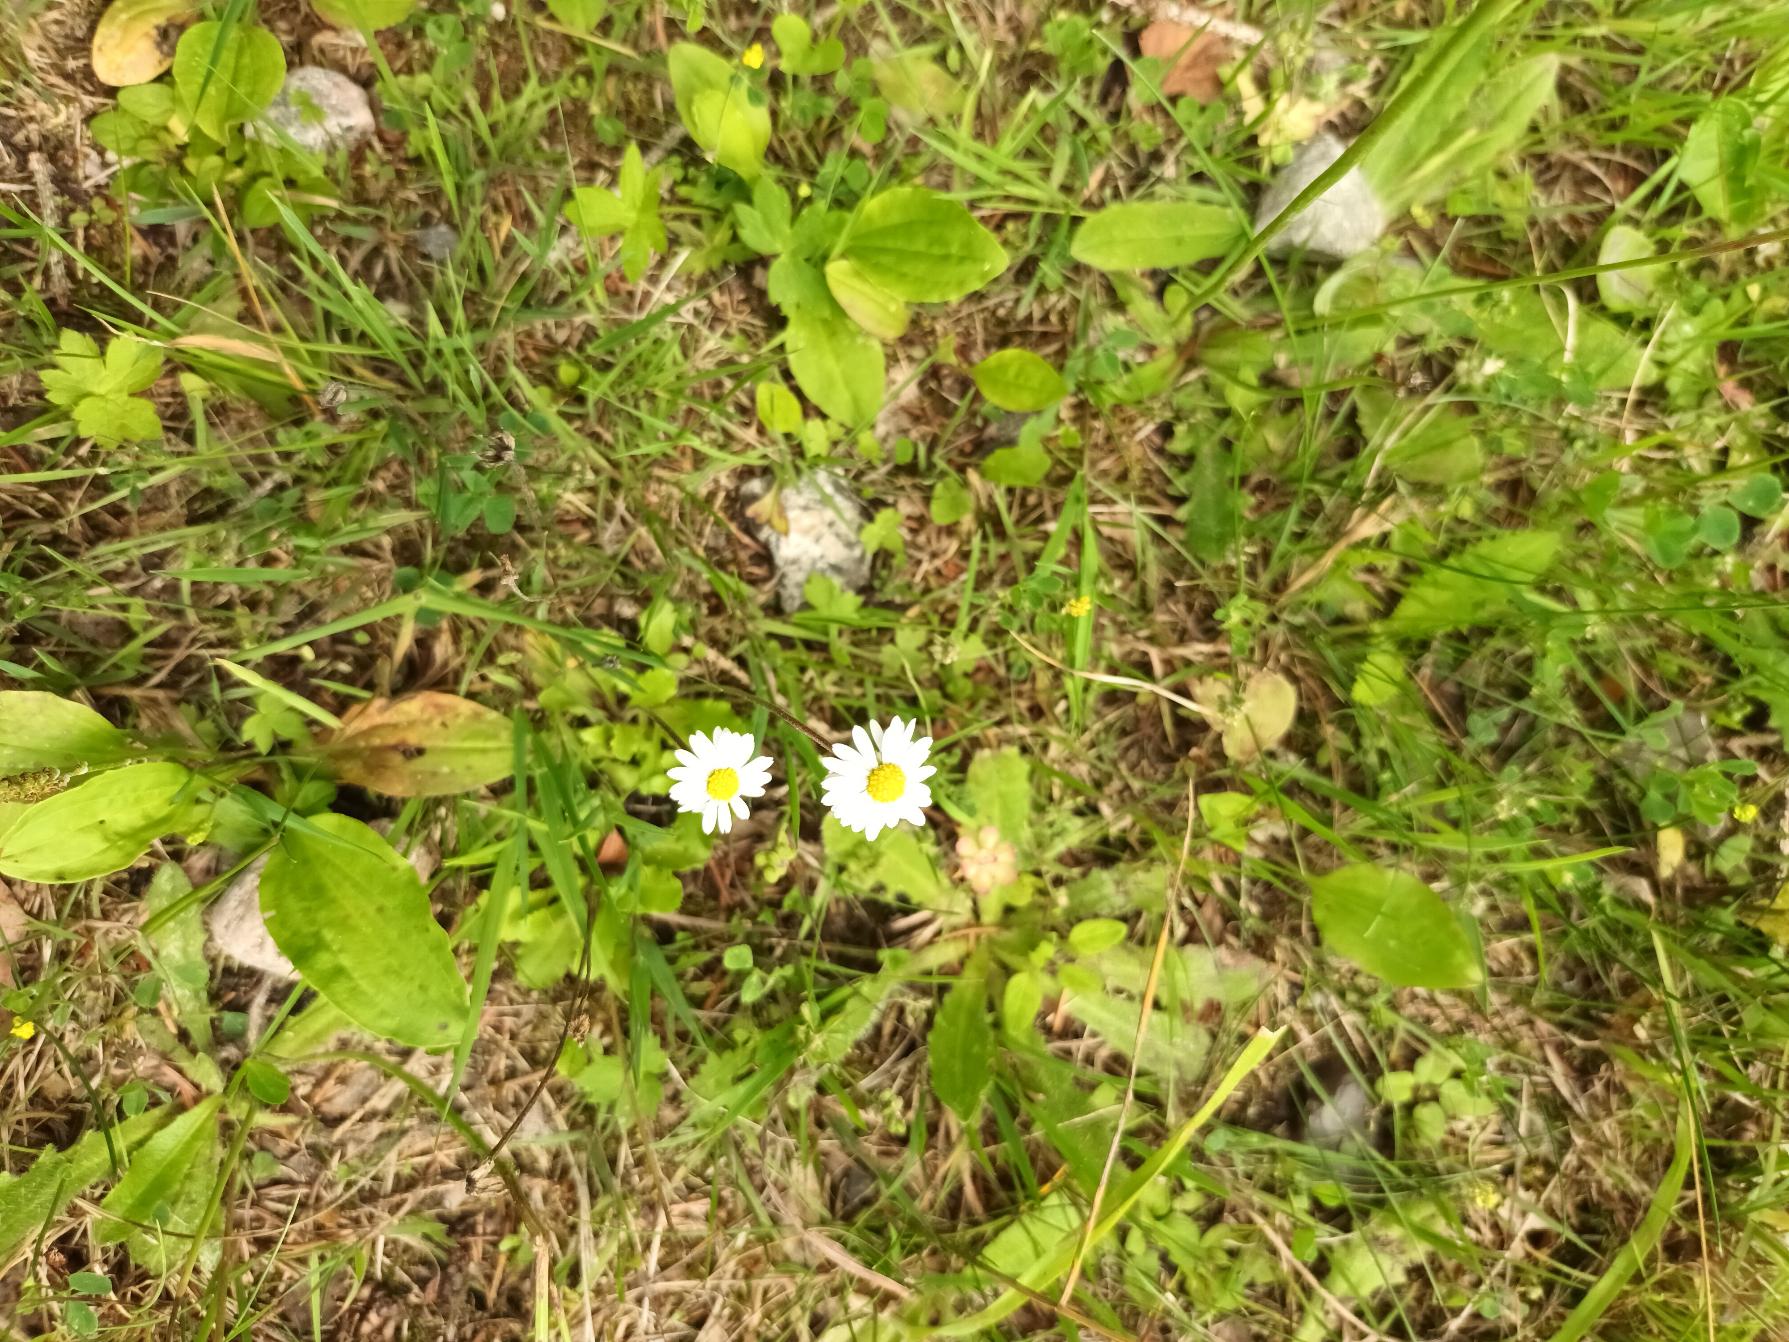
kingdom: Plantae
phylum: Tracheophyta
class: Magnoliopsida
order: Asterales
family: Asteraceae
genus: Bellis
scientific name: Bellis perennis
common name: Tusindfryd
